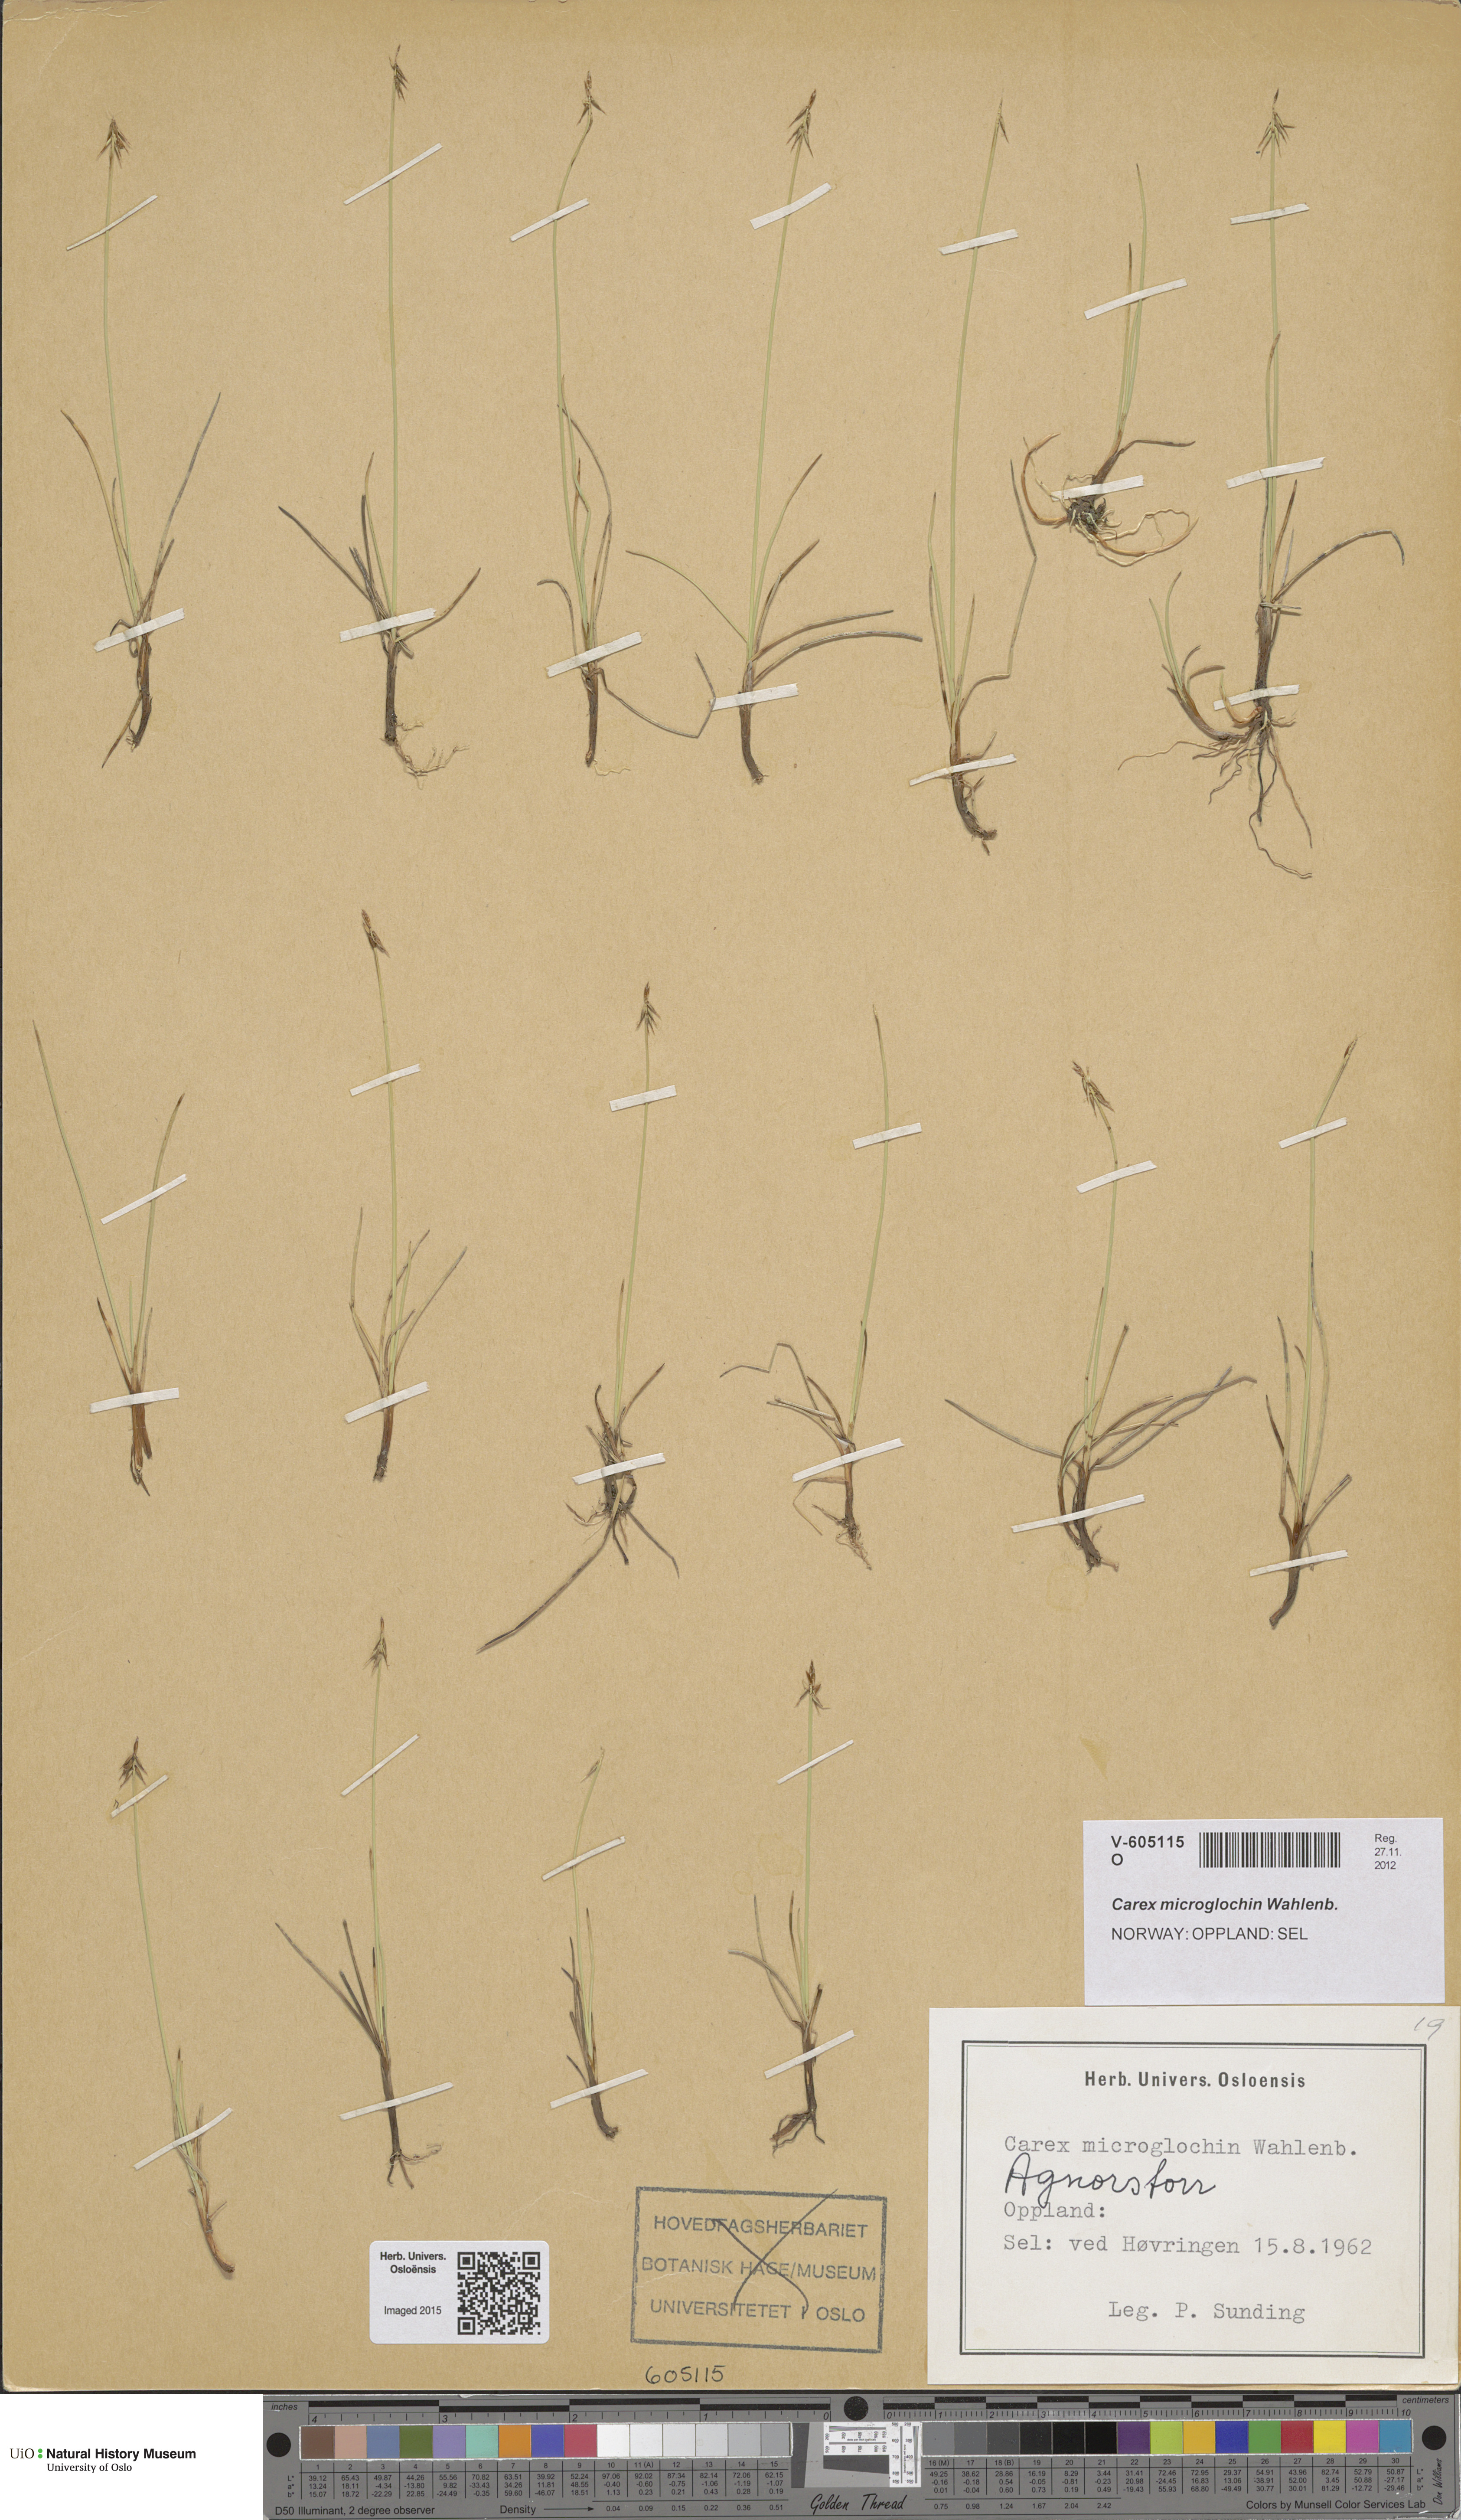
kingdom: Plantae
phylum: Tracheophyta
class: Liliopsida
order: Poales
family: Cyperaceae
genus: Carex
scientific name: Carex microglochin
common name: Bristle sedge
